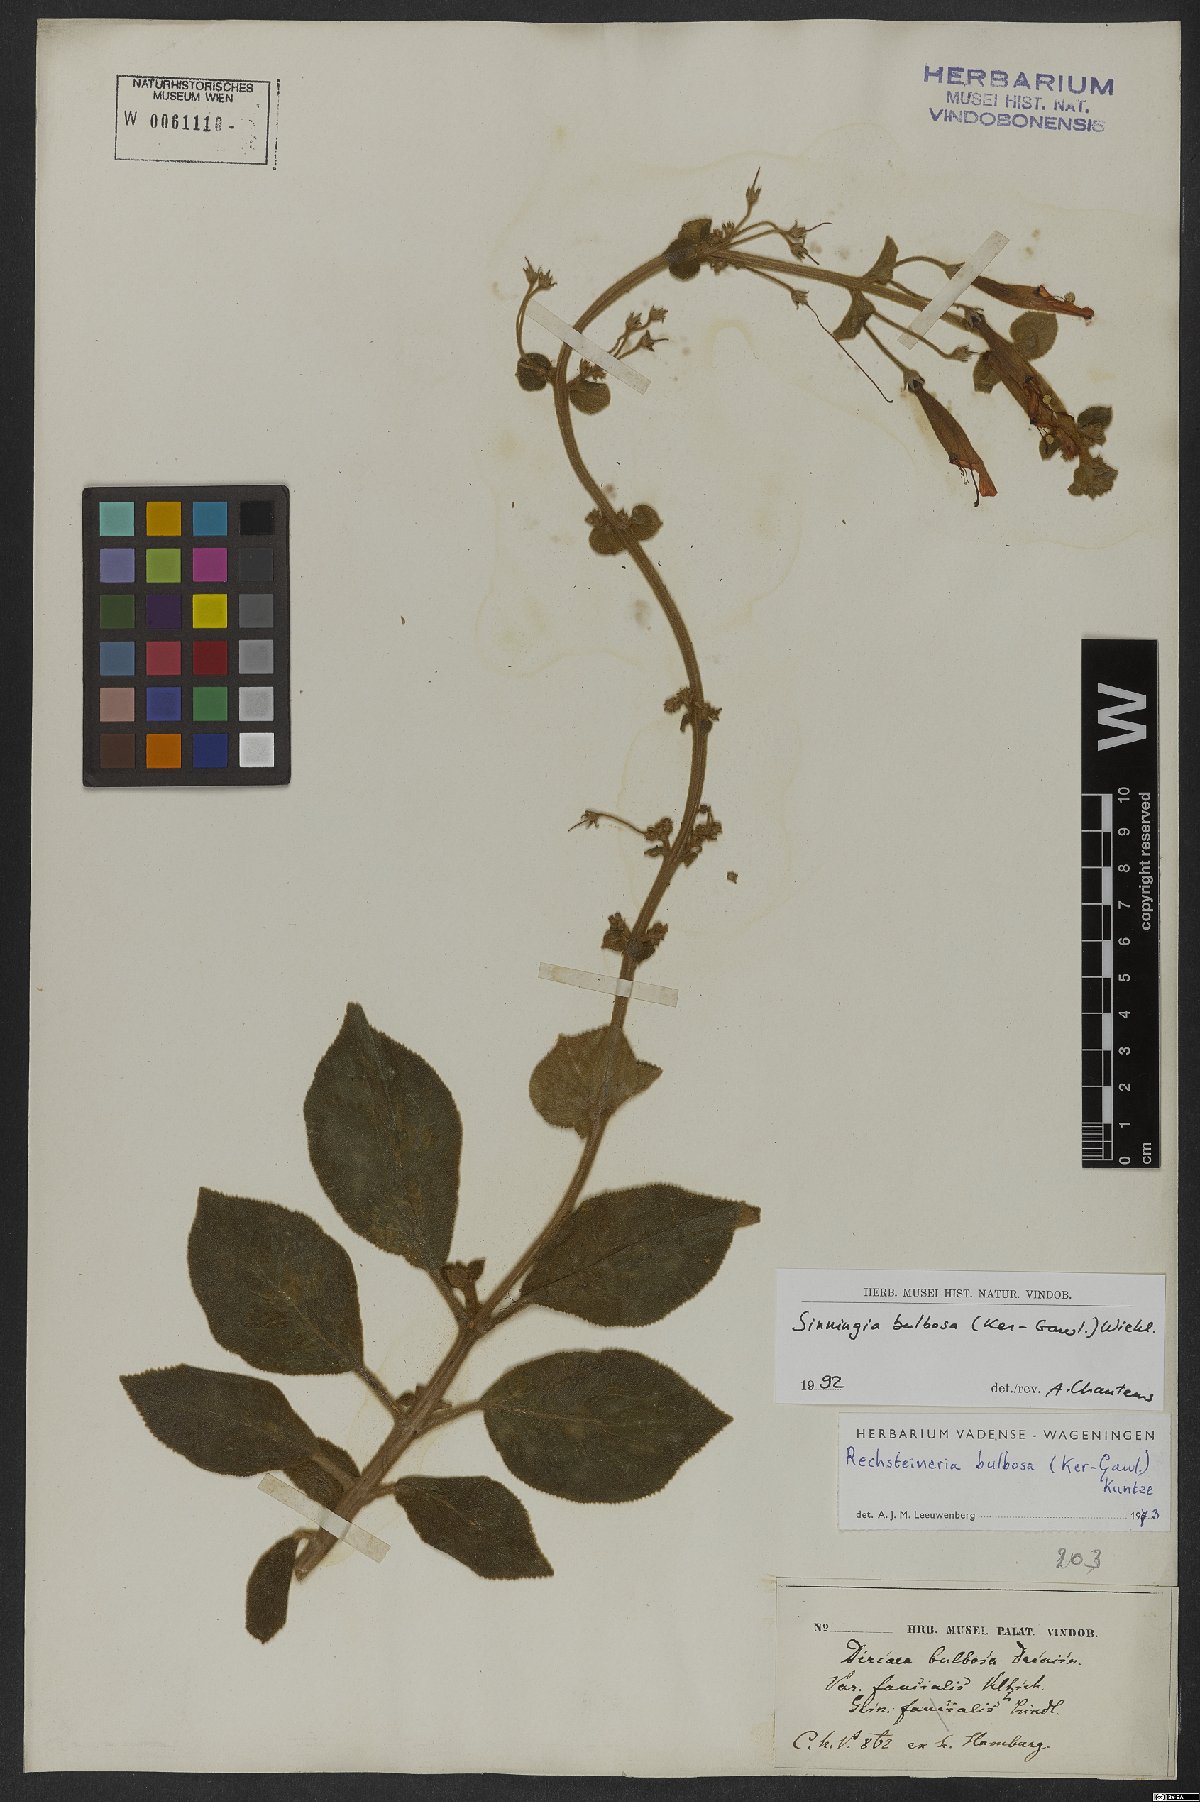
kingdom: Plantae
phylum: Tracheophyta
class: Magnoliopsida
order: Lamiales
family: Gesneriaceae
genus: Sinningia
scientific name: Sinningia bulbosa
